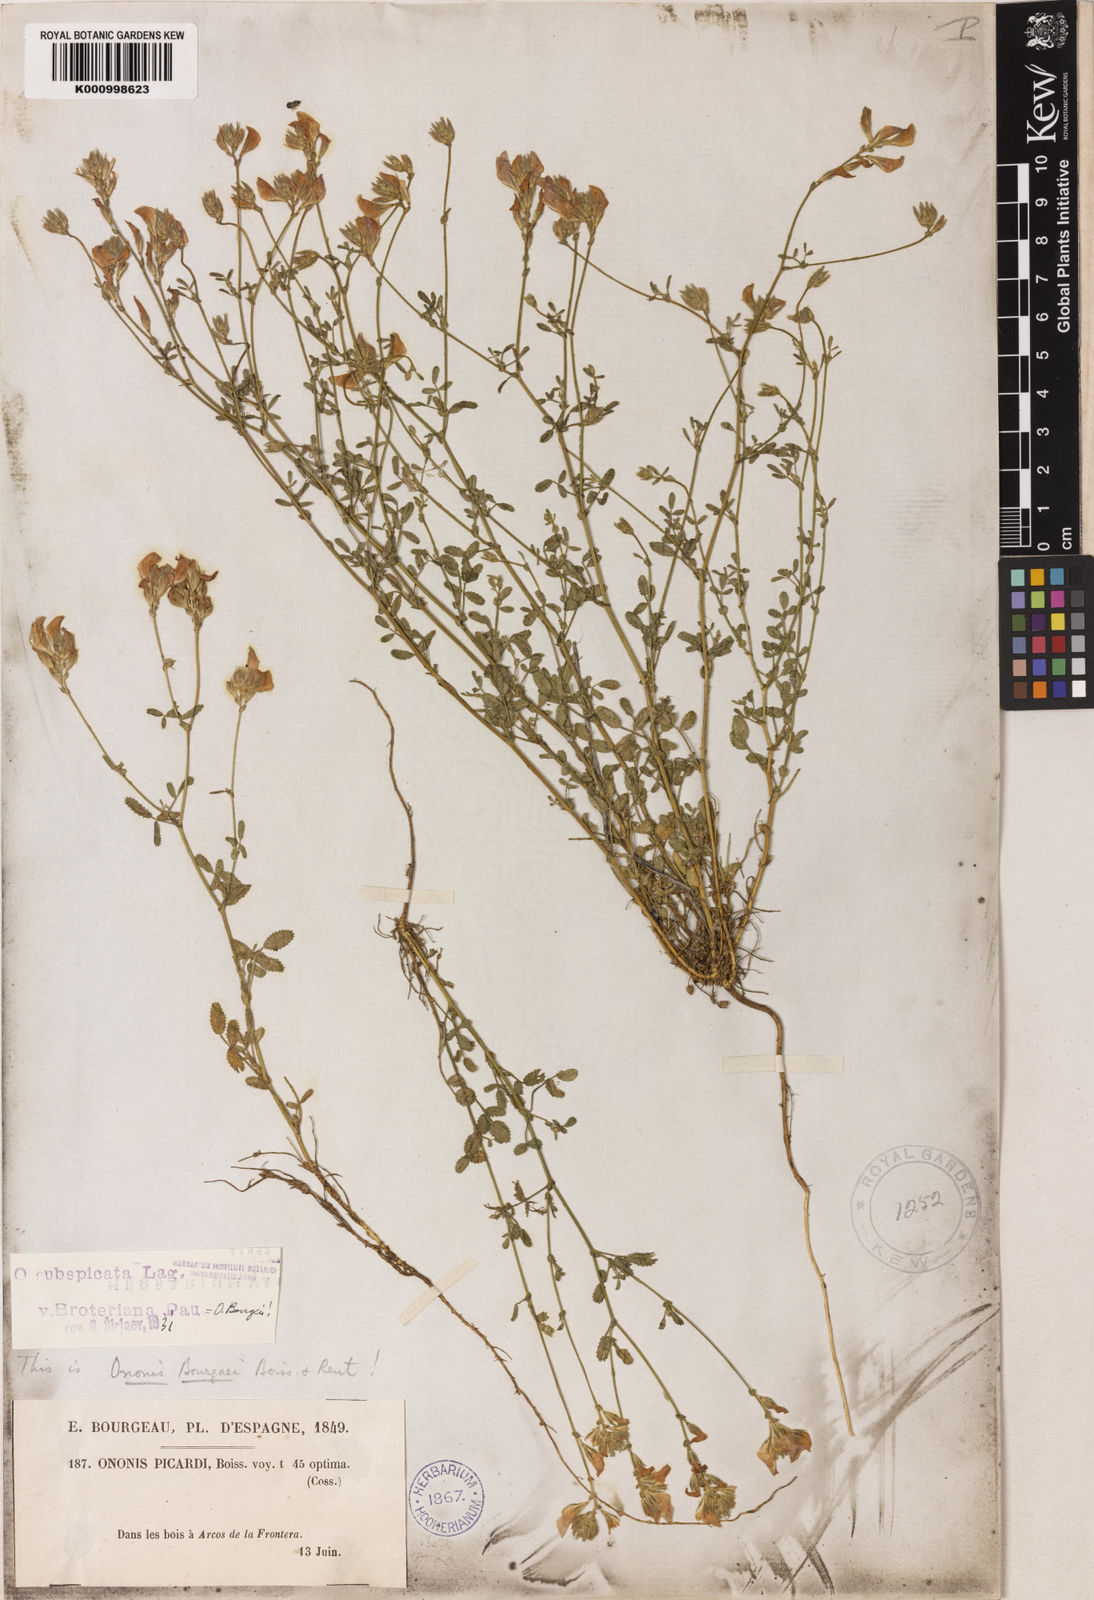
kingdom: Plantae
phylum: Tracheophyta
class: Magnoliopsida
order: Fabales
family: Fabaceae
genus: Ononis
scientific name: Ononis baetica
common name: Andalucian restharrow
